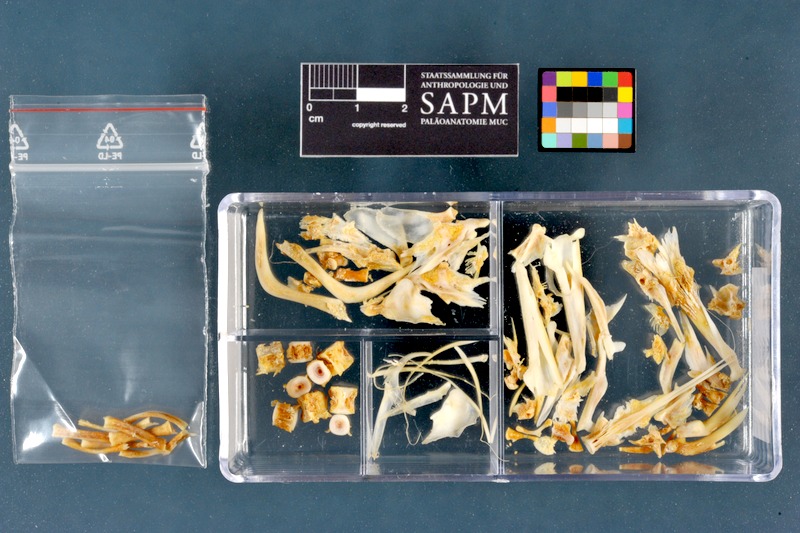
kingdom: Animalia
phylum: Chordata
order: Anguilliformes
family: Anguillidae
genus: Anguilla
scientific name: Anguilla anguilla
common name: European eel
